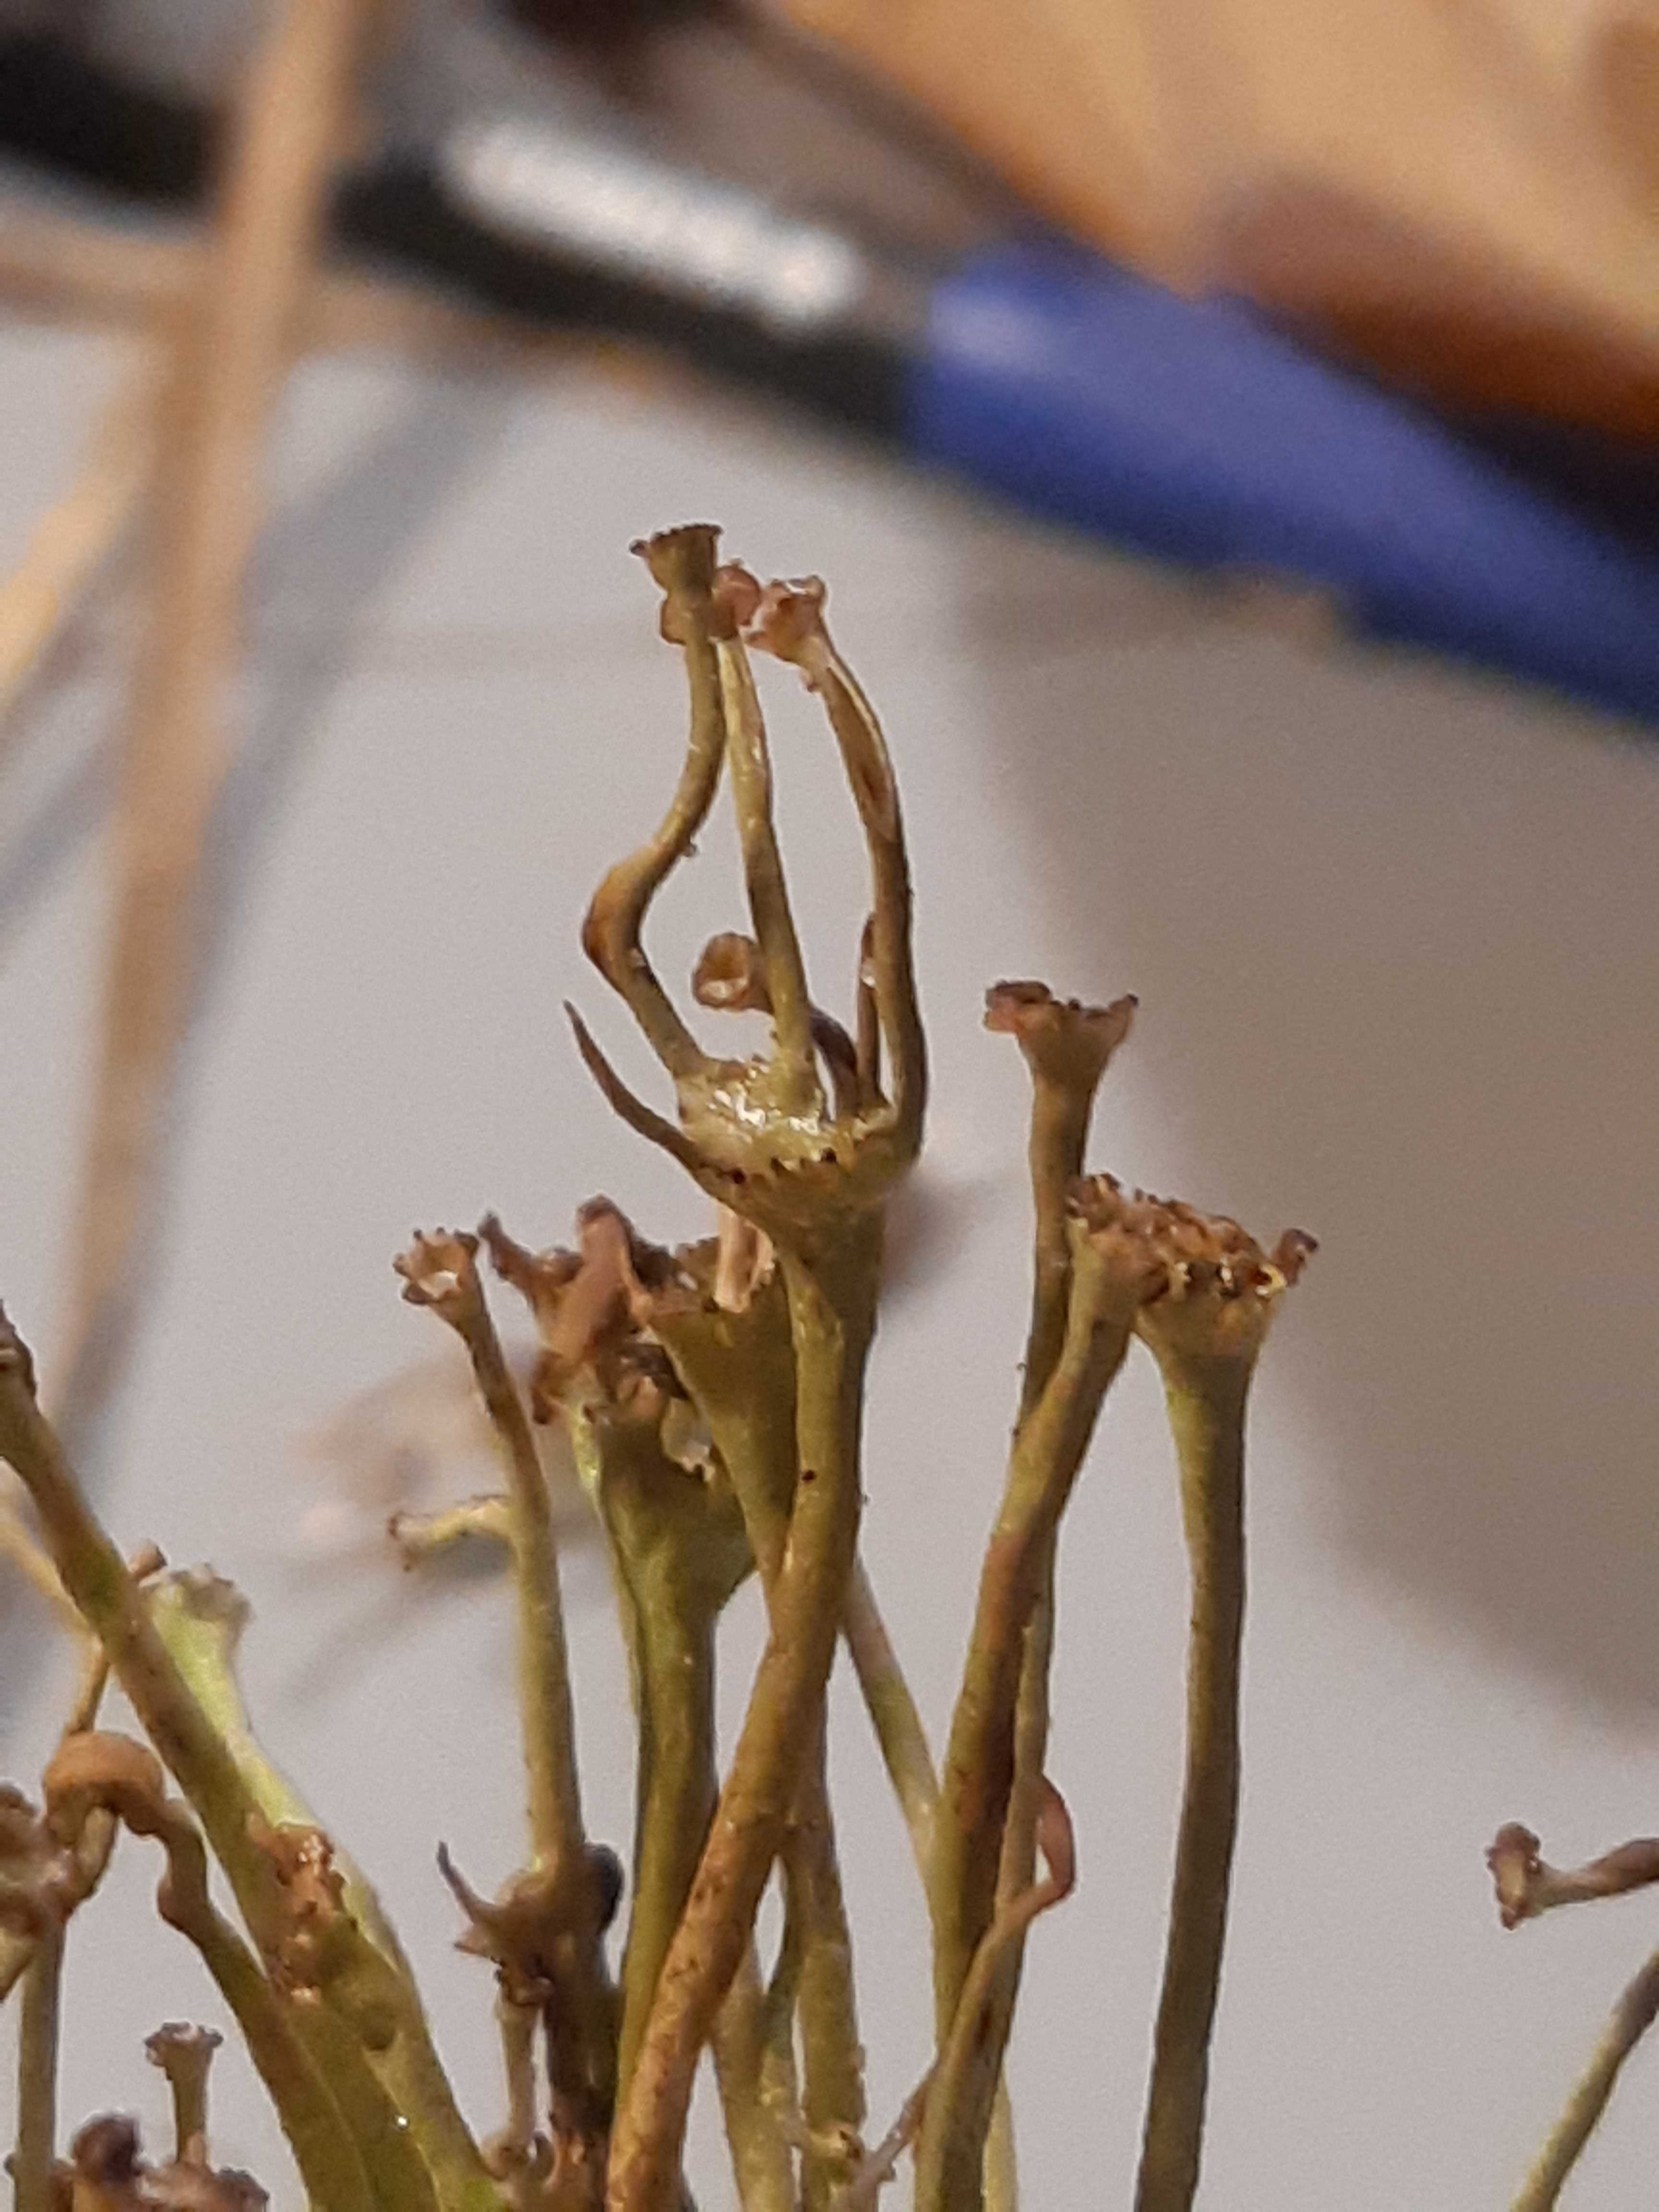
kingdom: Fungi
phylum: Ascomycota
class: Lecanoromycetes
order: Lecanorales
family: Cladoniaceae
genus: Cladonia
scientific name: Cladonia gracilis
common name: slank bægerlav
